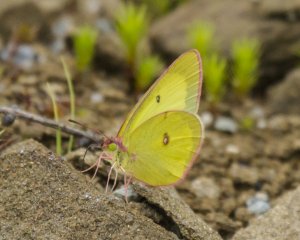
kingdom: Animalia
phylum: Arthropoda
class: Insecta
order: Lepidoptera
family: Pieridae
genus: Colias
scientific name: Colias interior
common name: Pink-edged Sulphur
